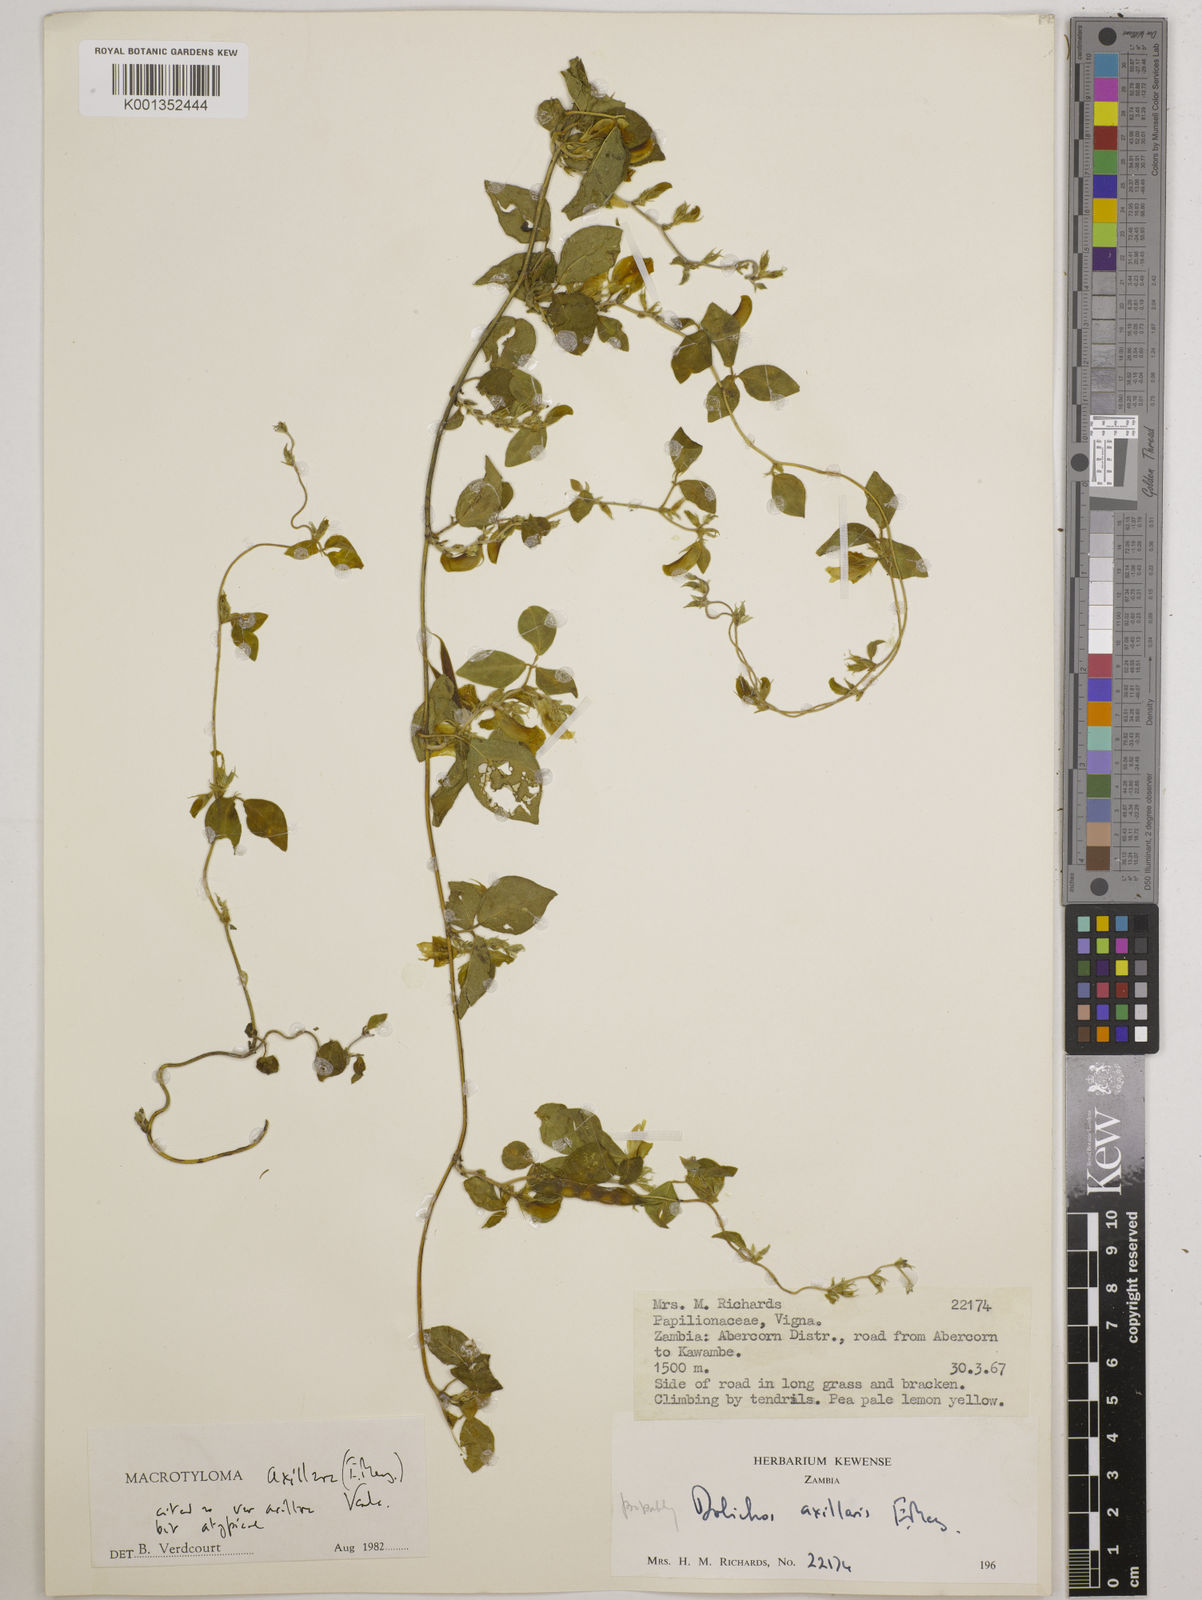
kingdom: Plantae
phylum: Tracheophyta
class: Magnoliopsida
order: Fabales
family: Fabaceae
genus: Macrotyloma
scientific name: Macrotyloma axillare
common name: Perennial horsegram
